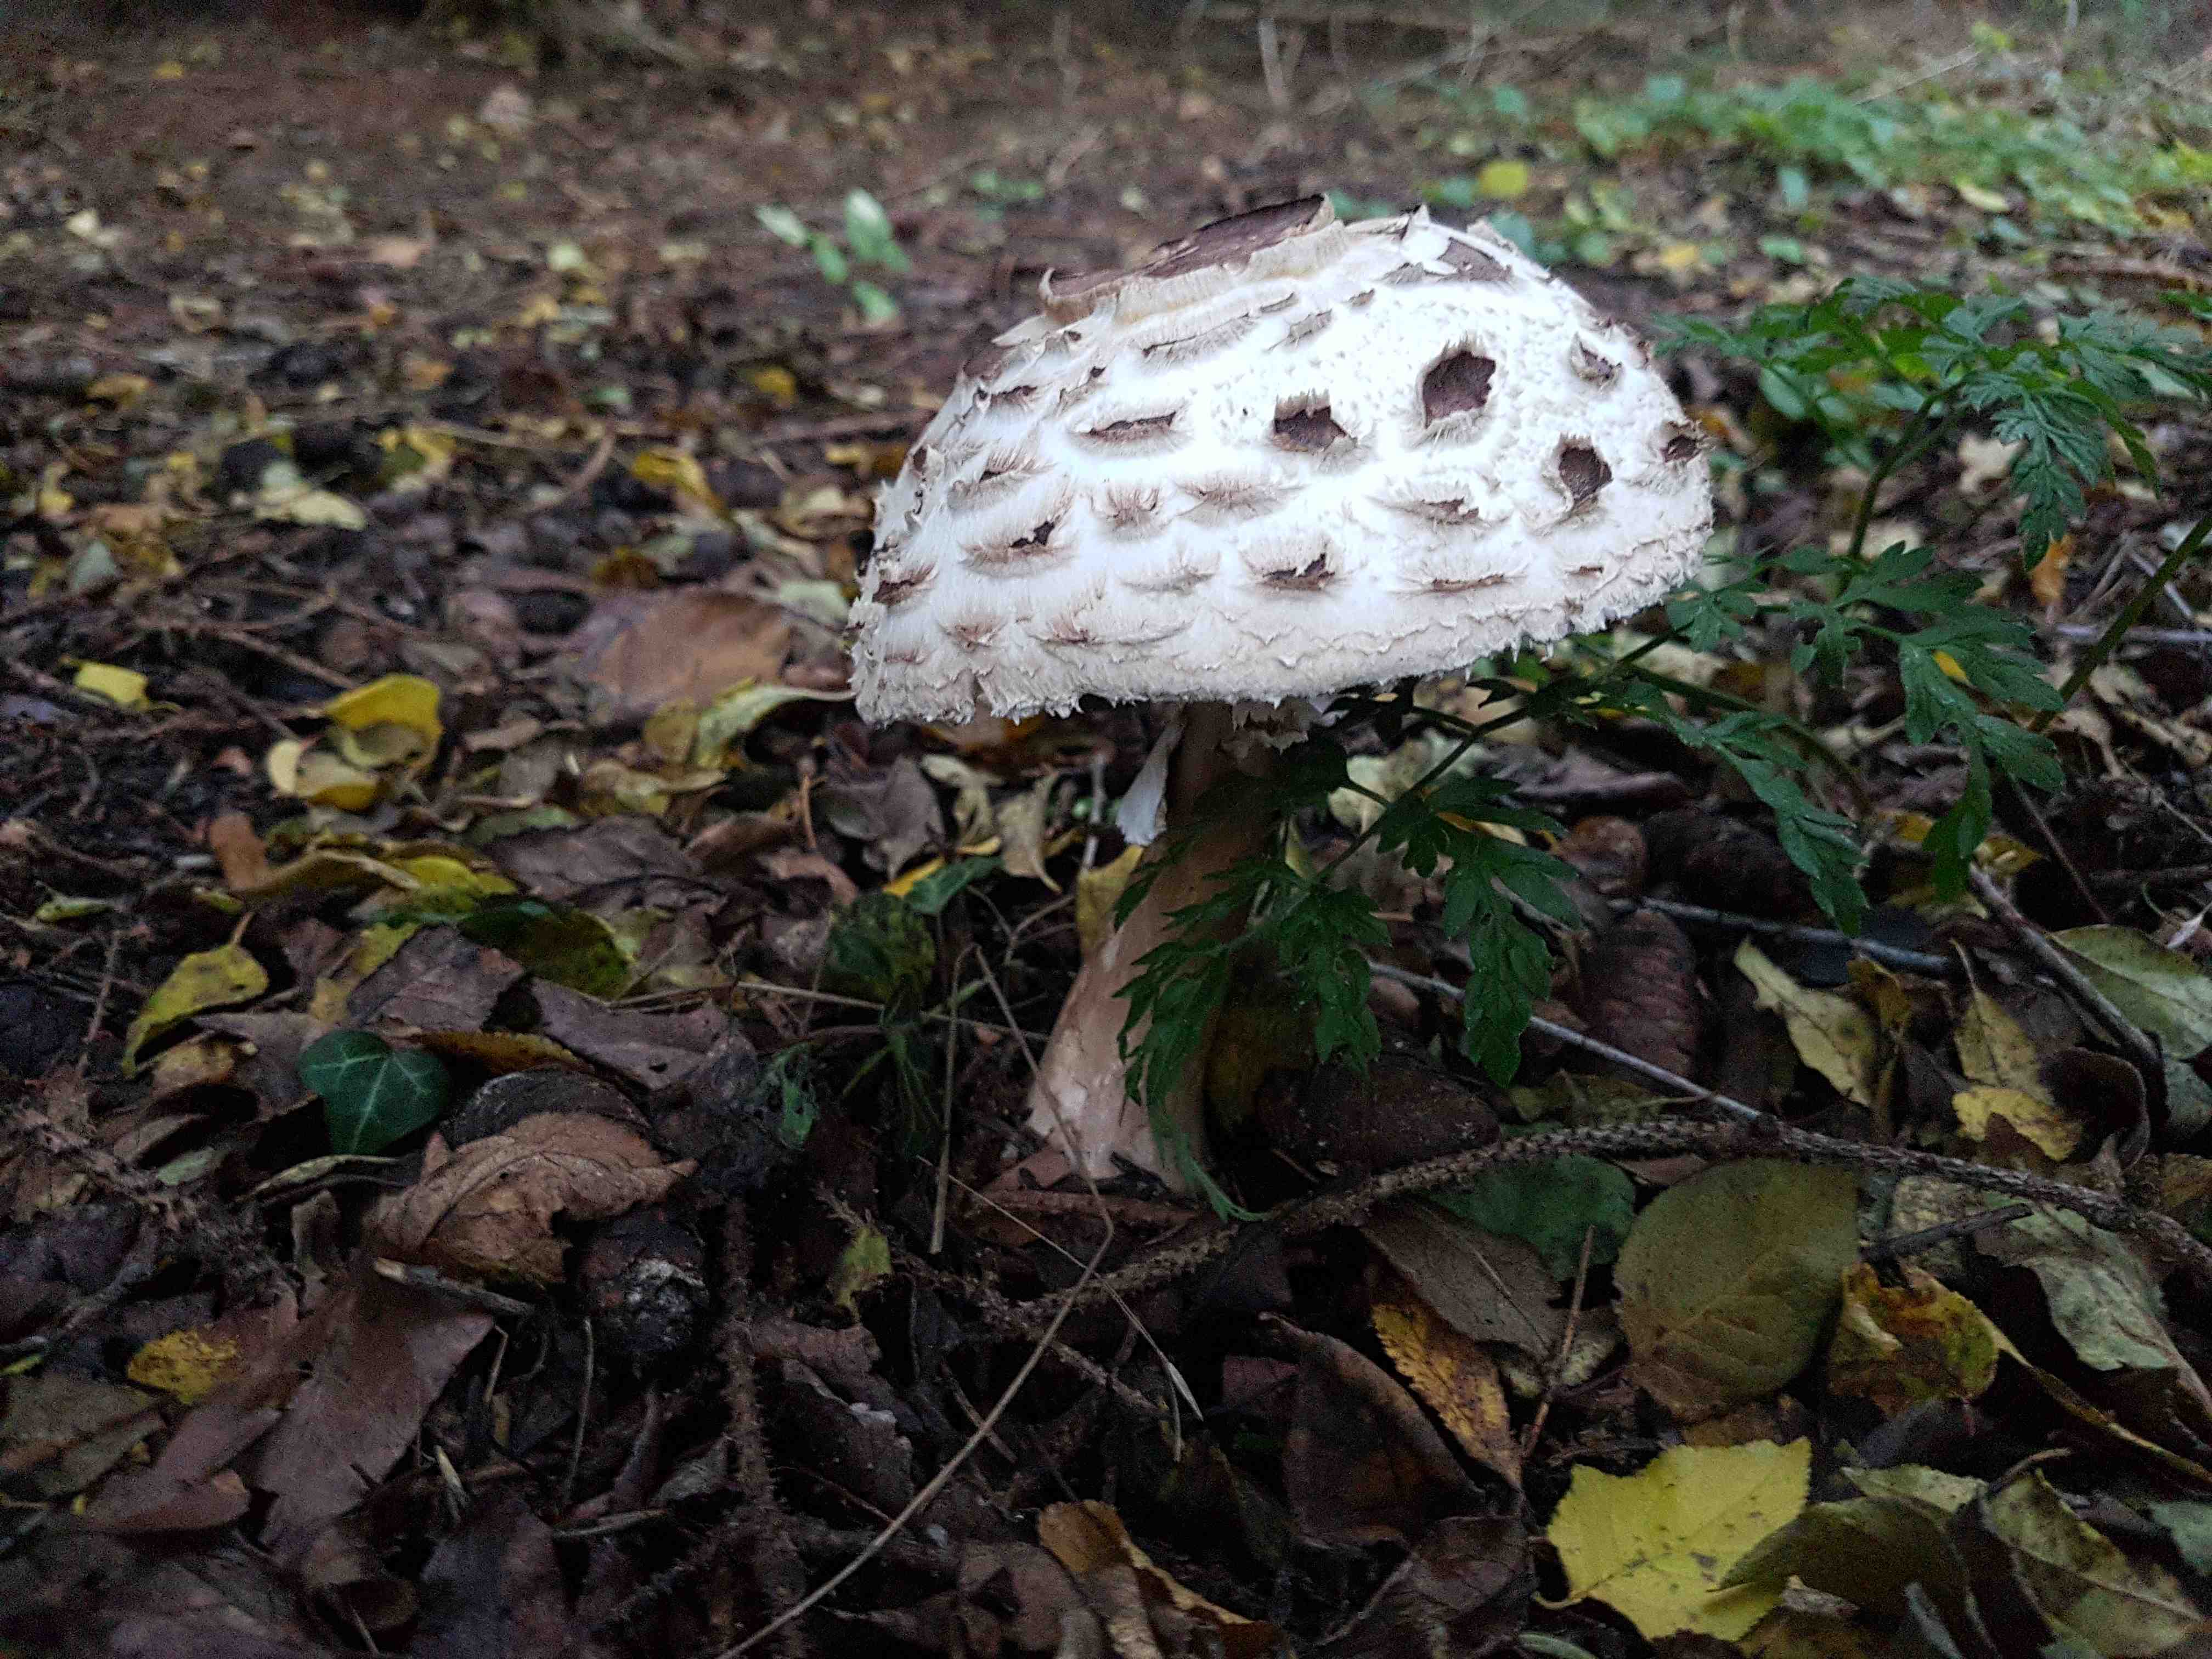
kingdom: Fungi
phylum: Basidiomycota
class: Agaricomycetes
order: Agaricales
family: Agaricaceae
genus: Chlorophyllum
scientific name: Chlorophyllum rhacodes
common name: ægte rabarberhat
